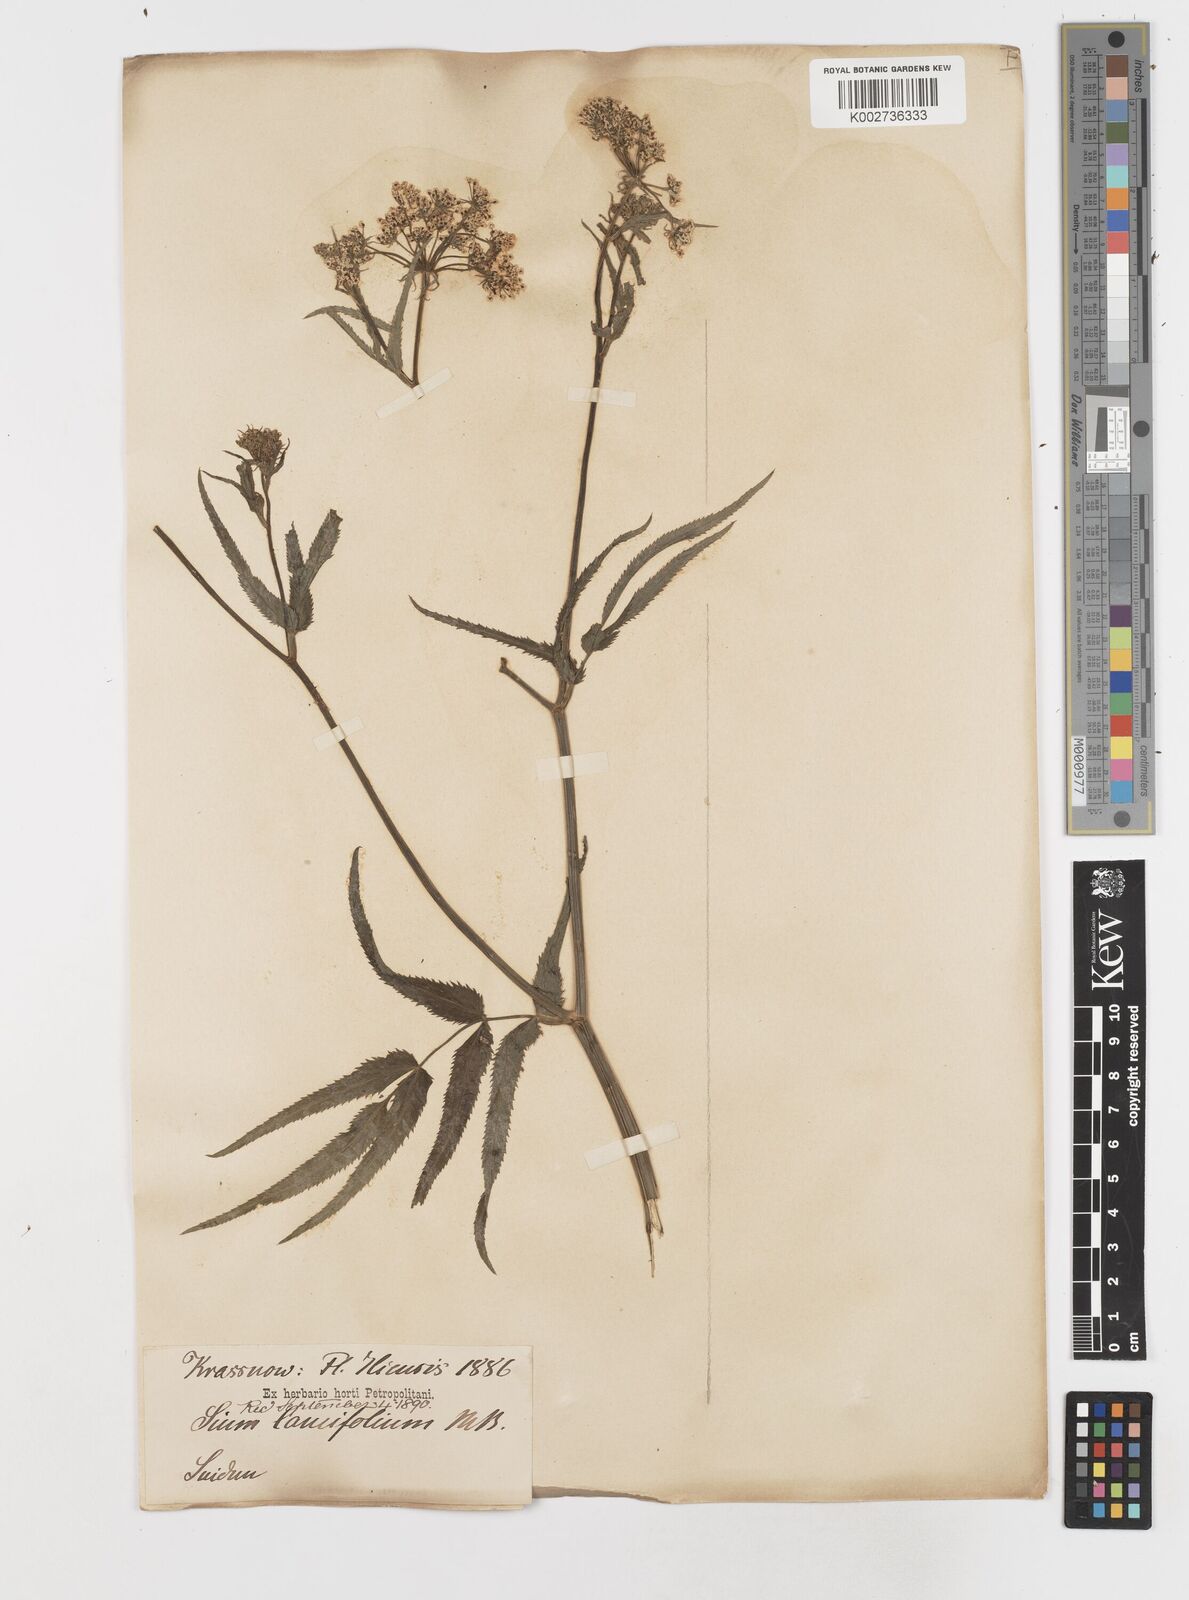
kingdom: Plantae
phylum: Tracheophyta
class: Magnoliopsida
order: Apiales
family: Apiaceae
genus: Sium
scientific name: Sium sisarum
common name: Skirret
